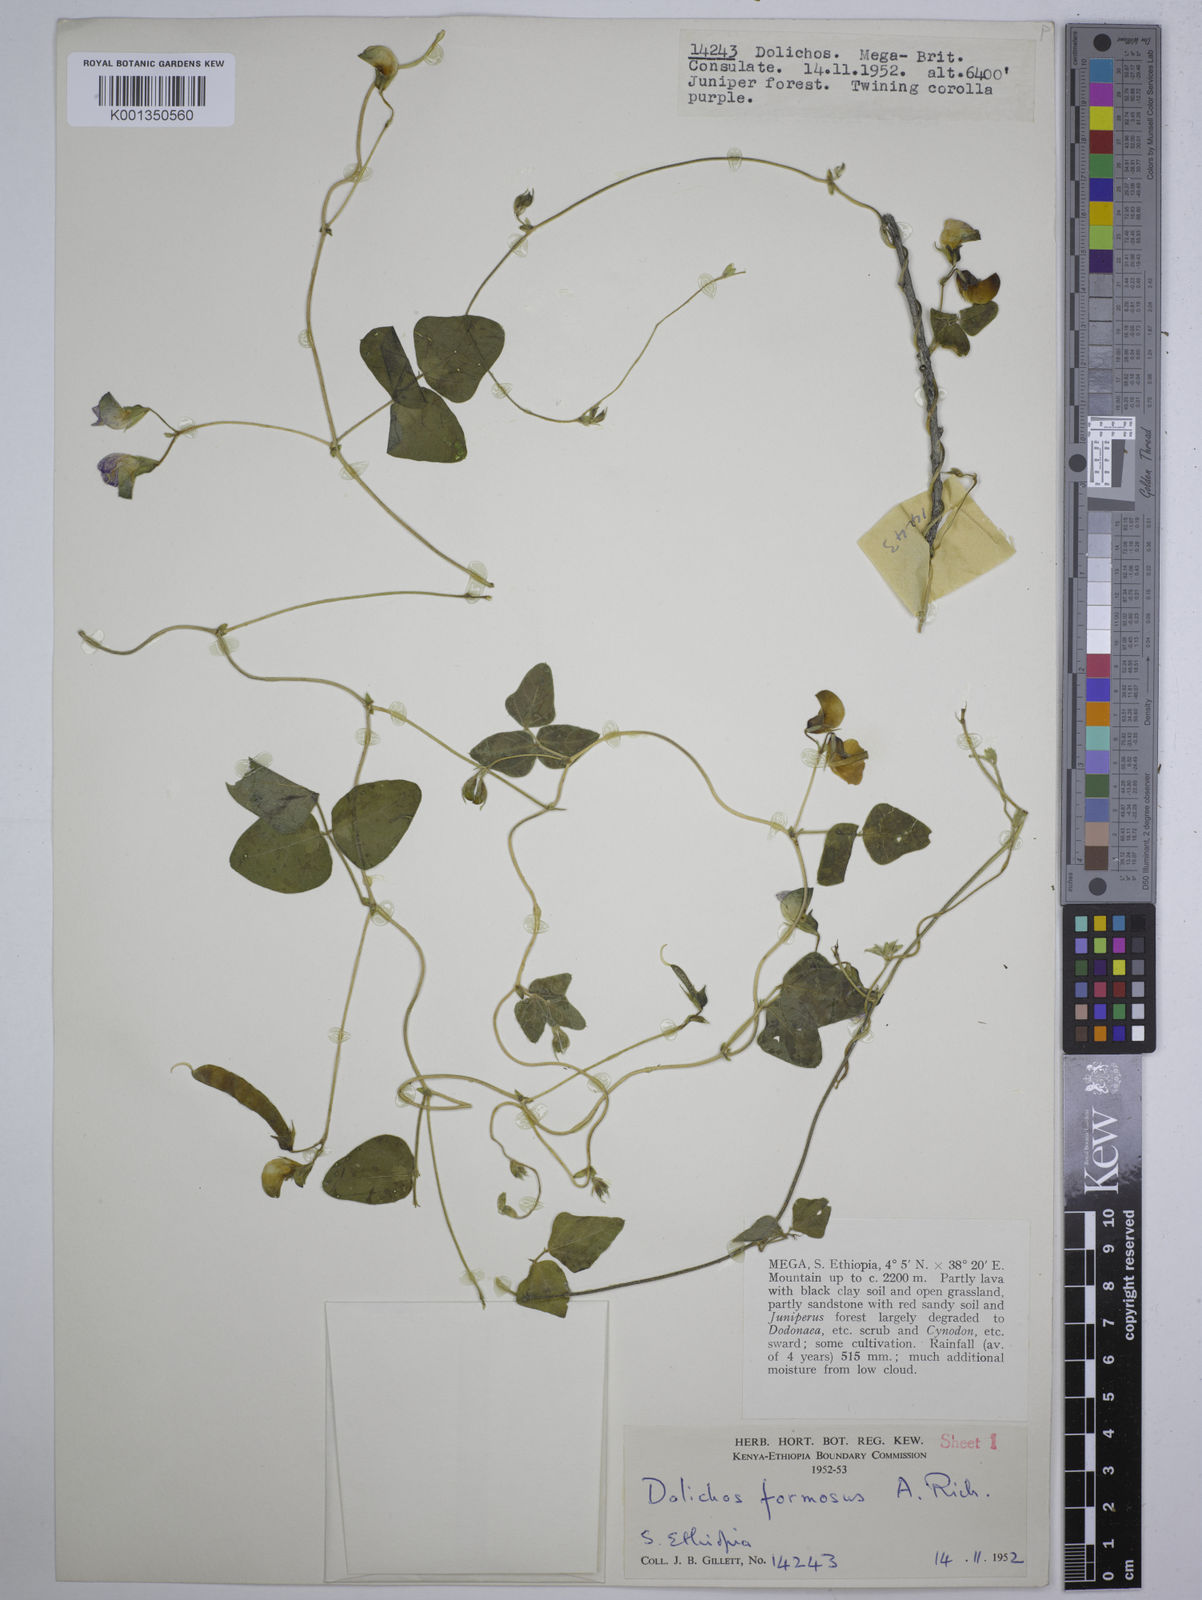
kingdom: Plantae
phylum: Tracheophyta
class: Magnoliopsida
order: Fabales
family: Fabaceae
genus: Dolichos
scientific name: Dolichos
